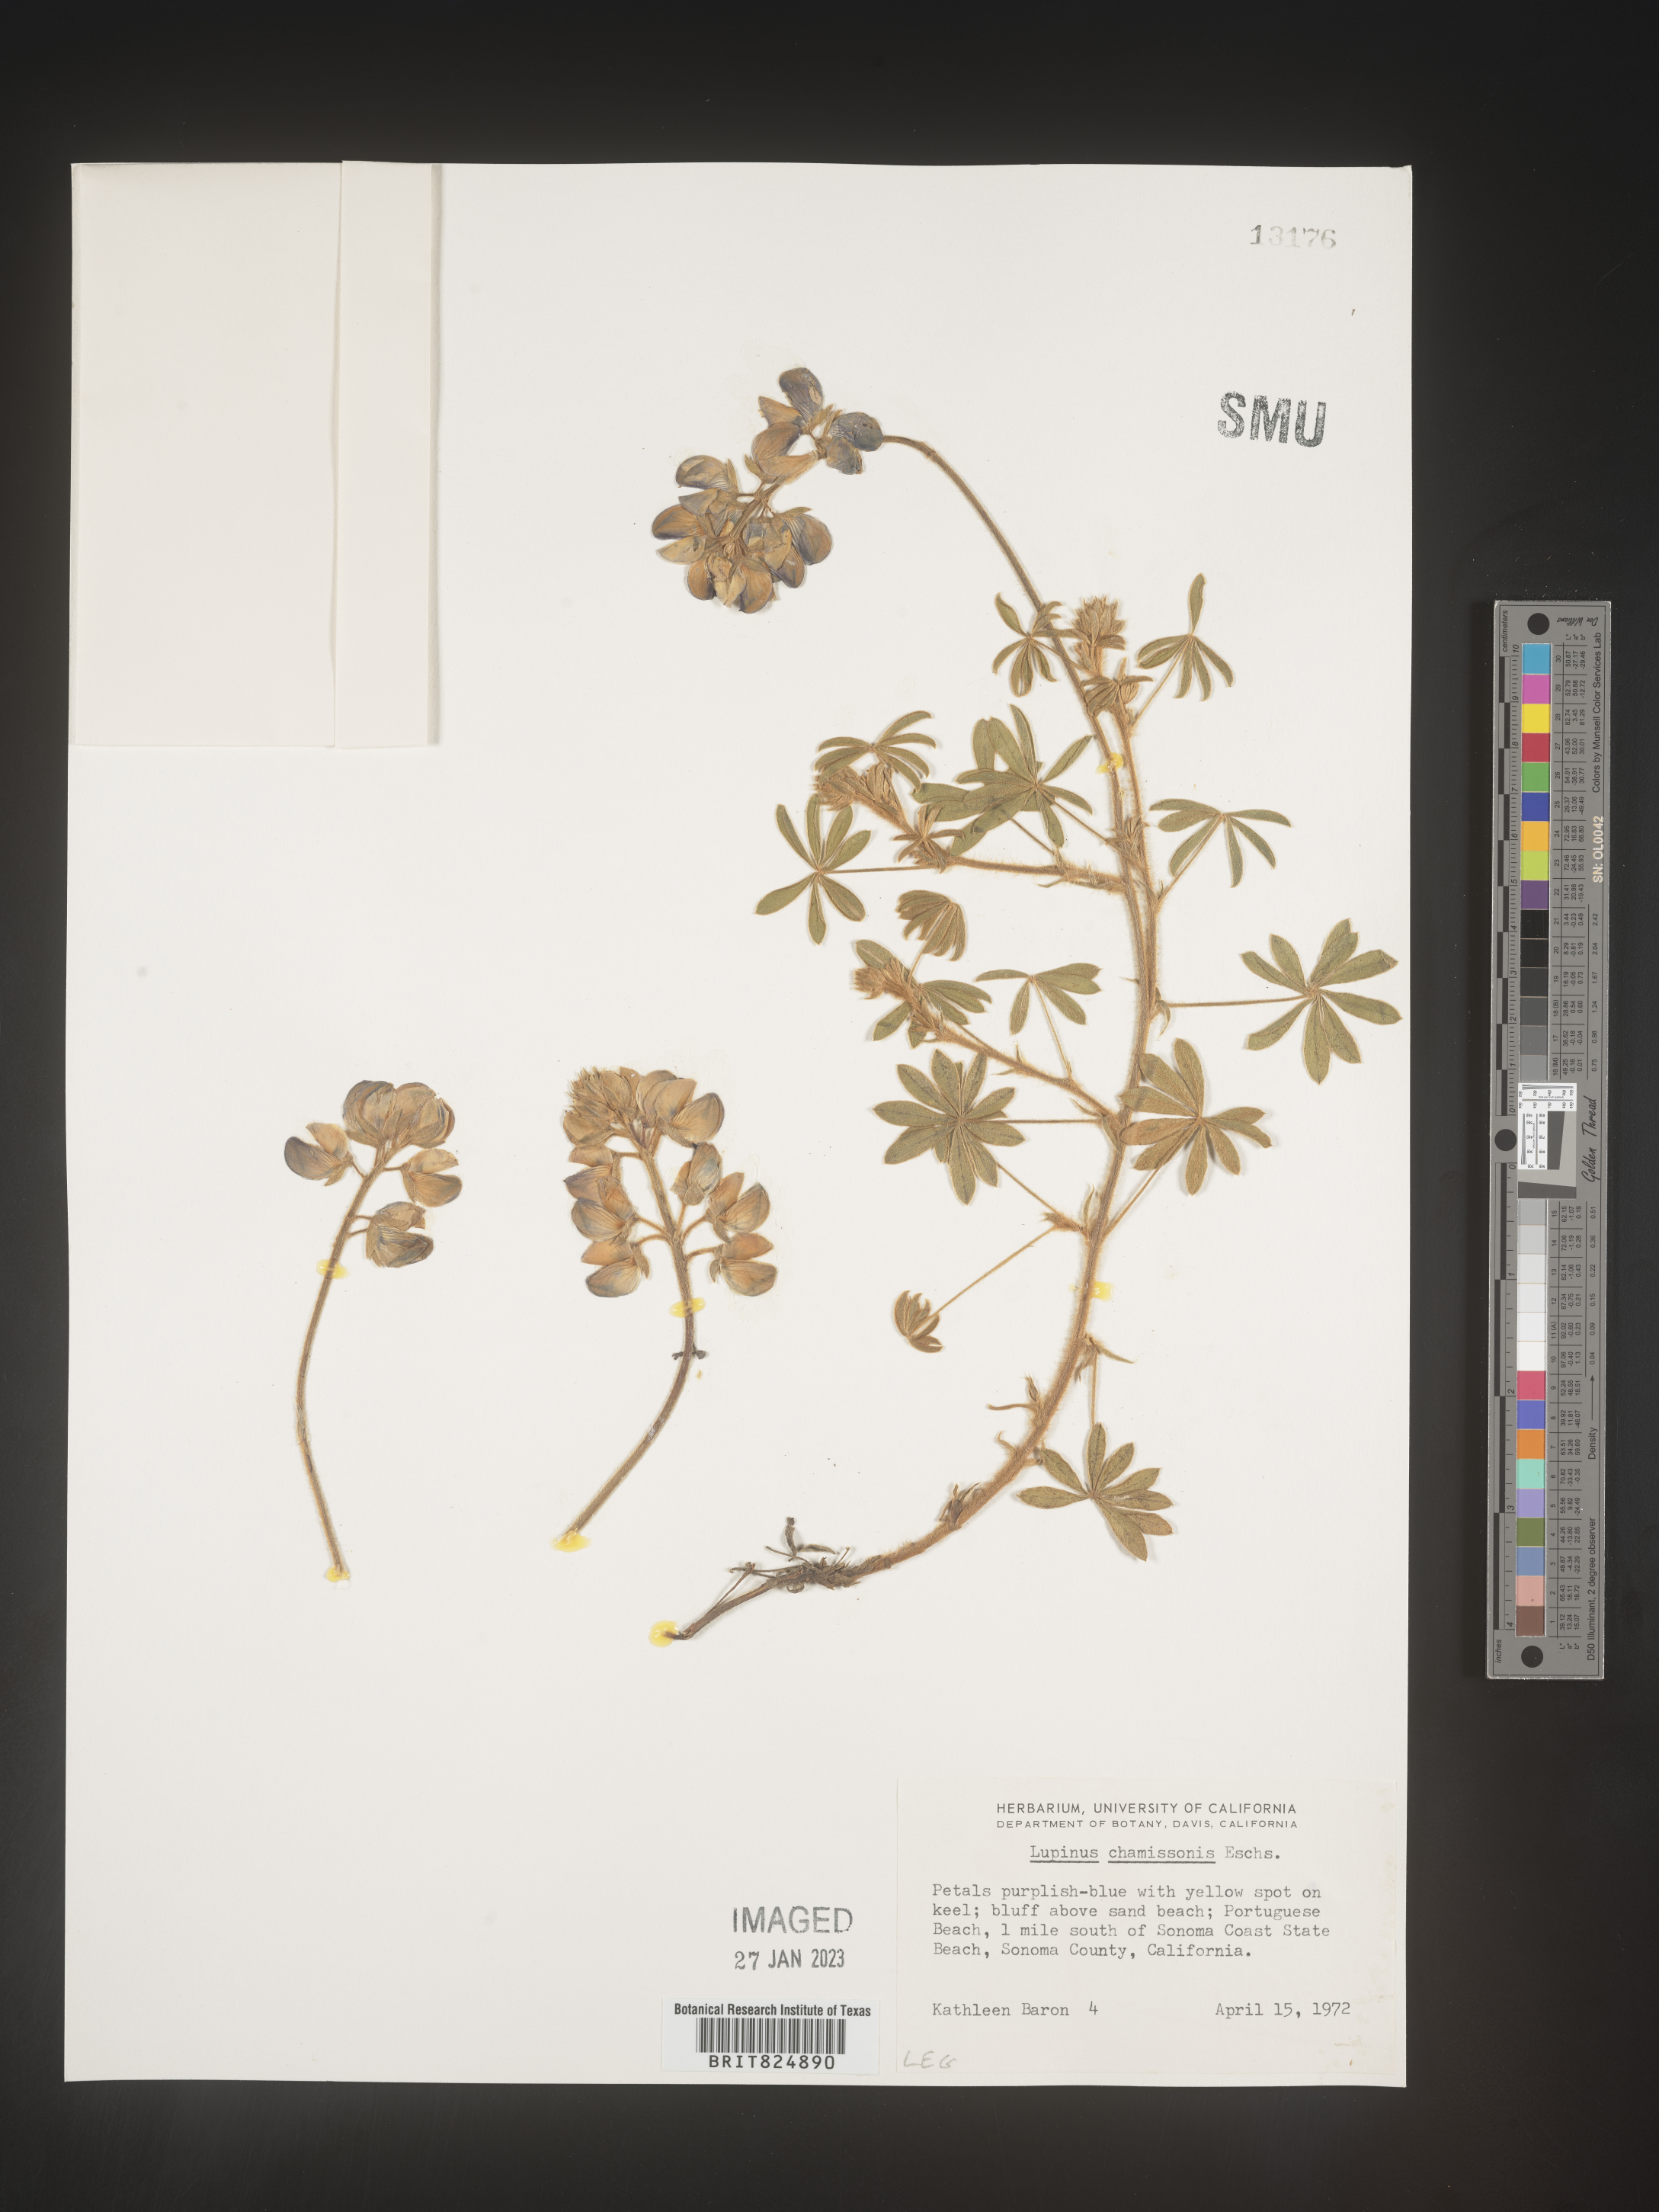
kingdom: Plantae
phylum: Tracheophyta
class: Magnoliopsida
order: Fabales
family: Fabaceae
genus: Lupinus
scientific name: Lupinus
